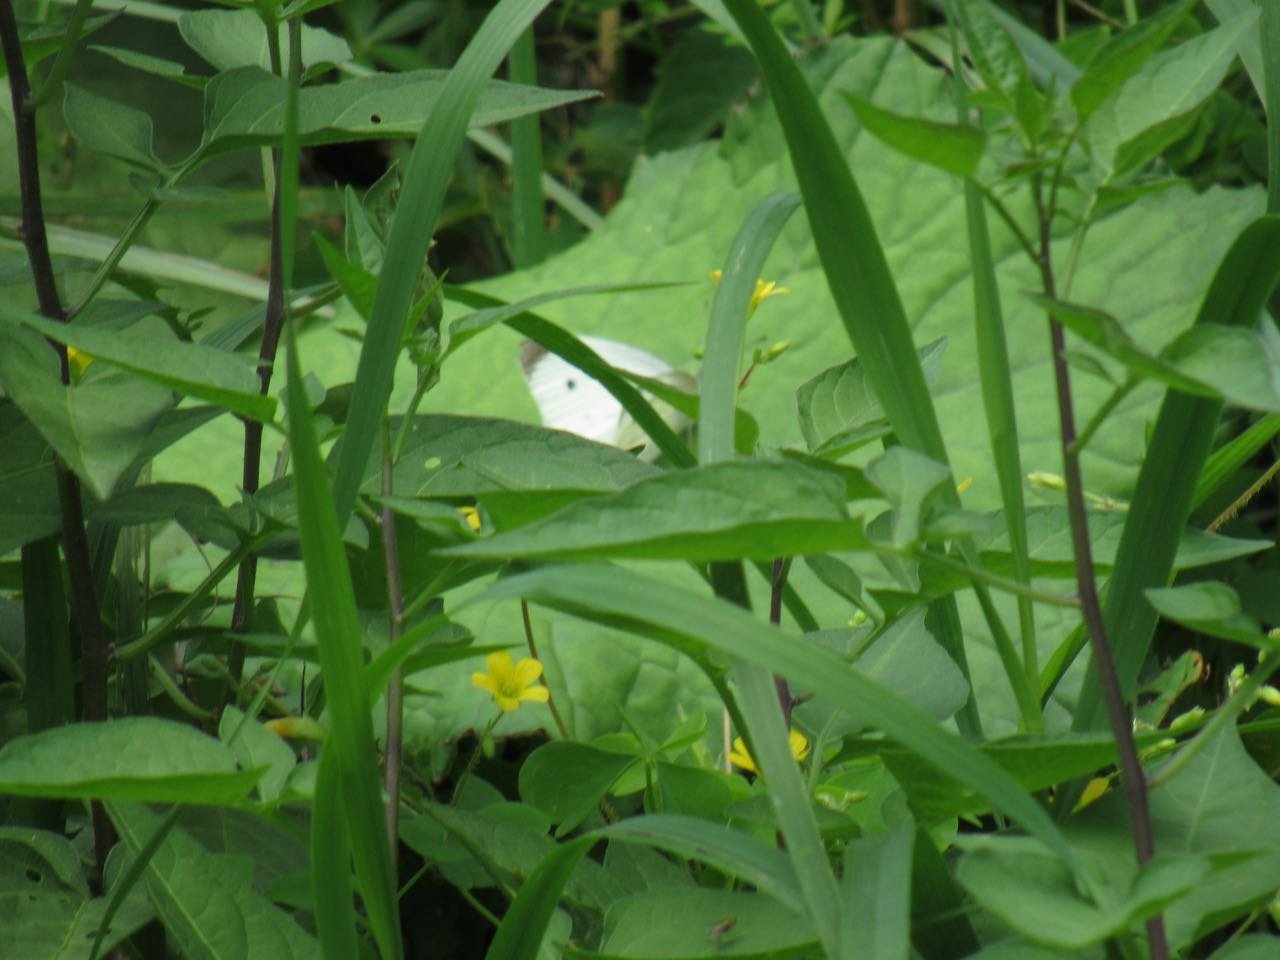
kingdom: Animalia
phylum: Arthropoda
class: Insecta
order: Lepidoptera
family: Pieridae
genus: Pieris
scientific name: Pieris rapae
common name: Cabbage White
